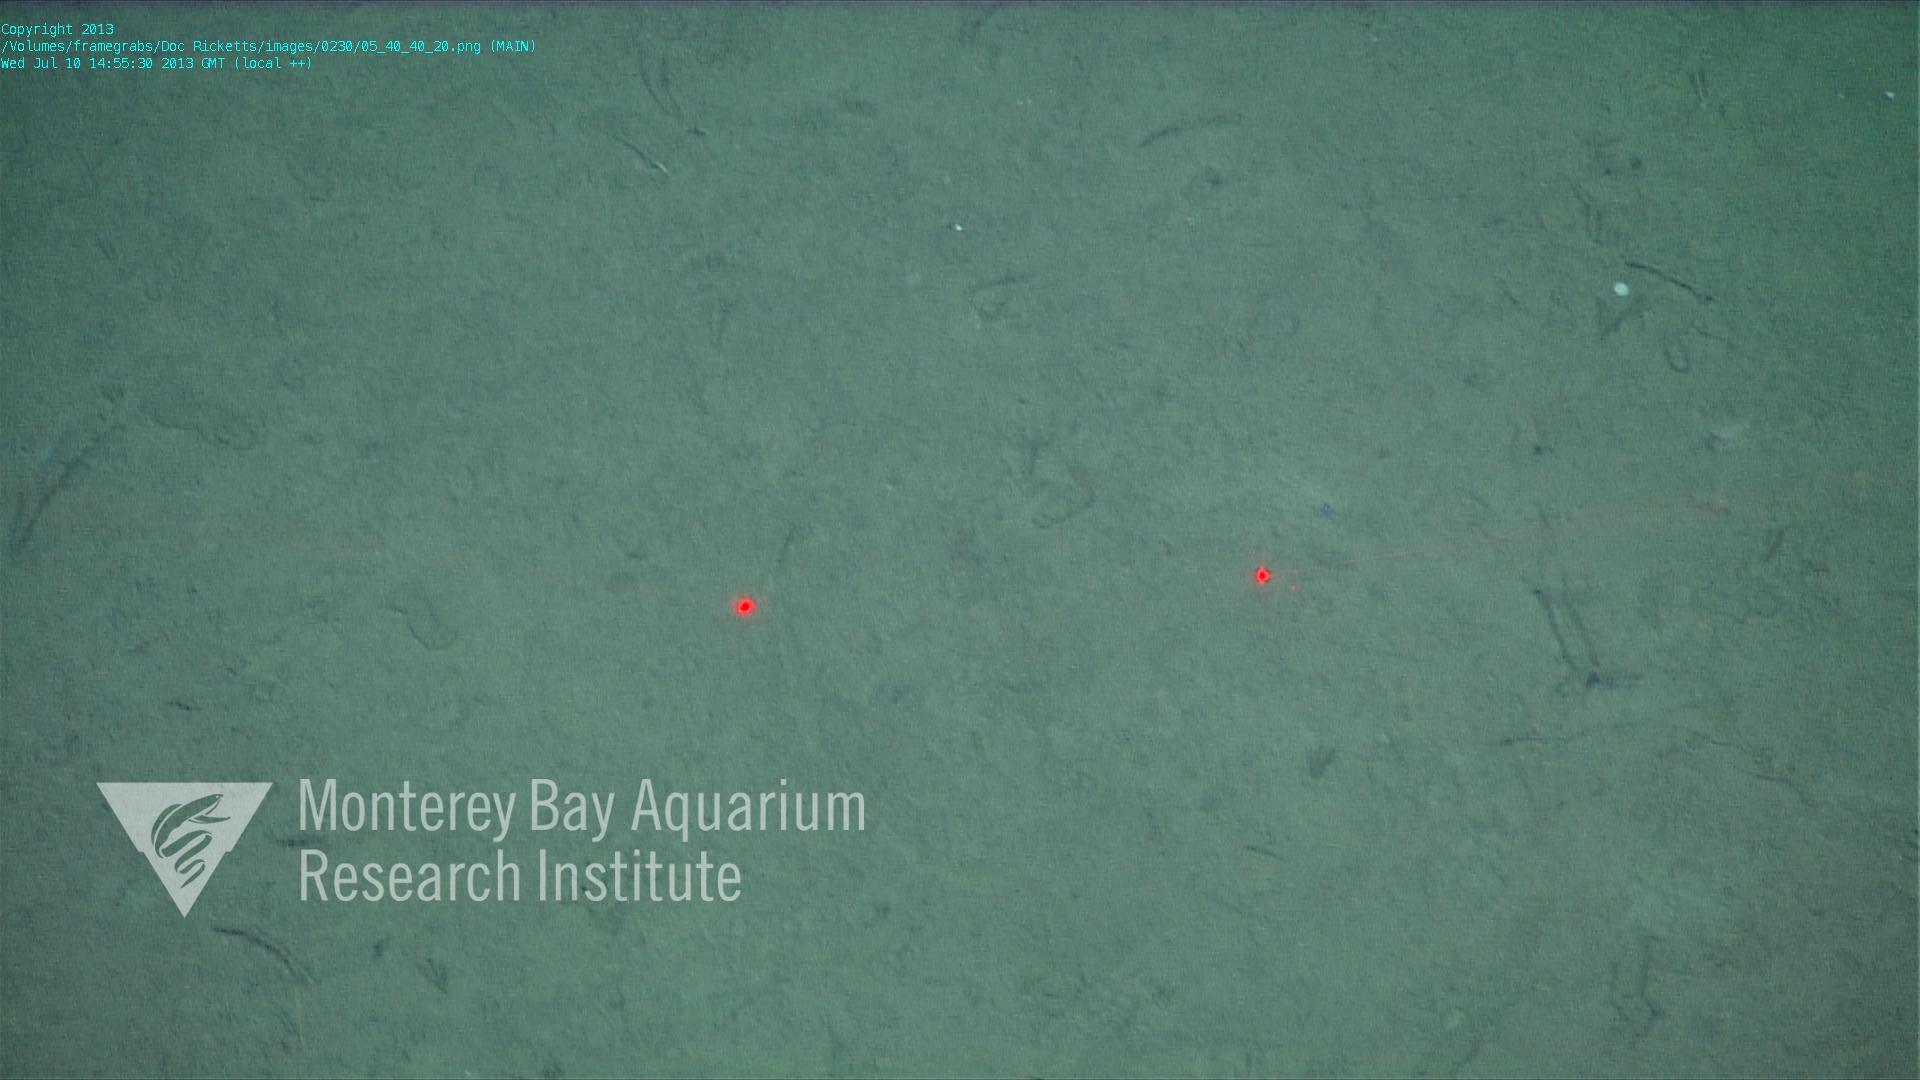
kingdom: Animalia
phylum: Porifera
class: Demospongiae
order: Poecilosclerida
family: Cladorhizidae
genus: Cladorhiza
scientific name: Cladorhiza
